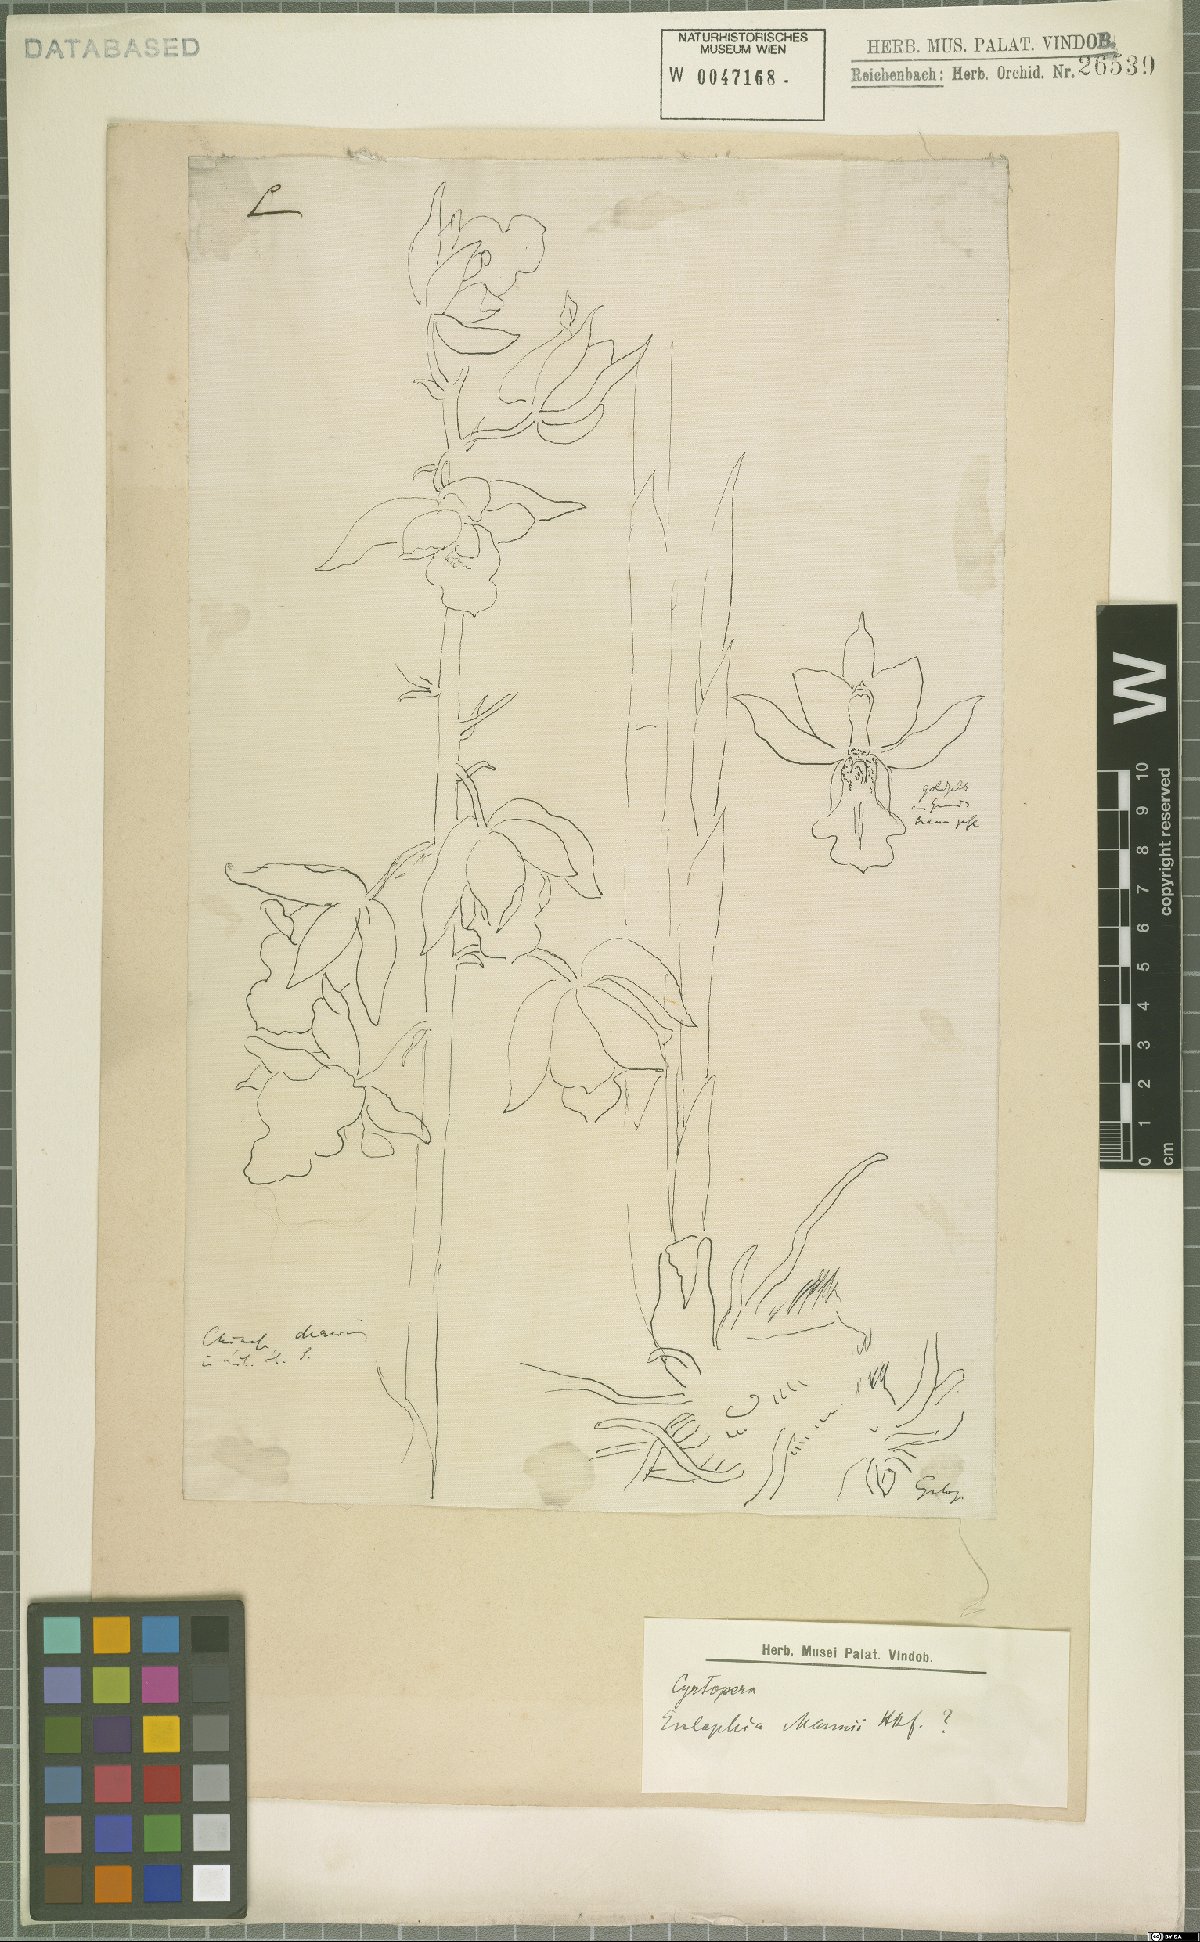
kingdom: Plantae
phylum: Tracheophyta
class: Liliopsida
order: Asparagales
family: Orchidaceae
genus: Eulophia
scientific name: Eulophia mannii
